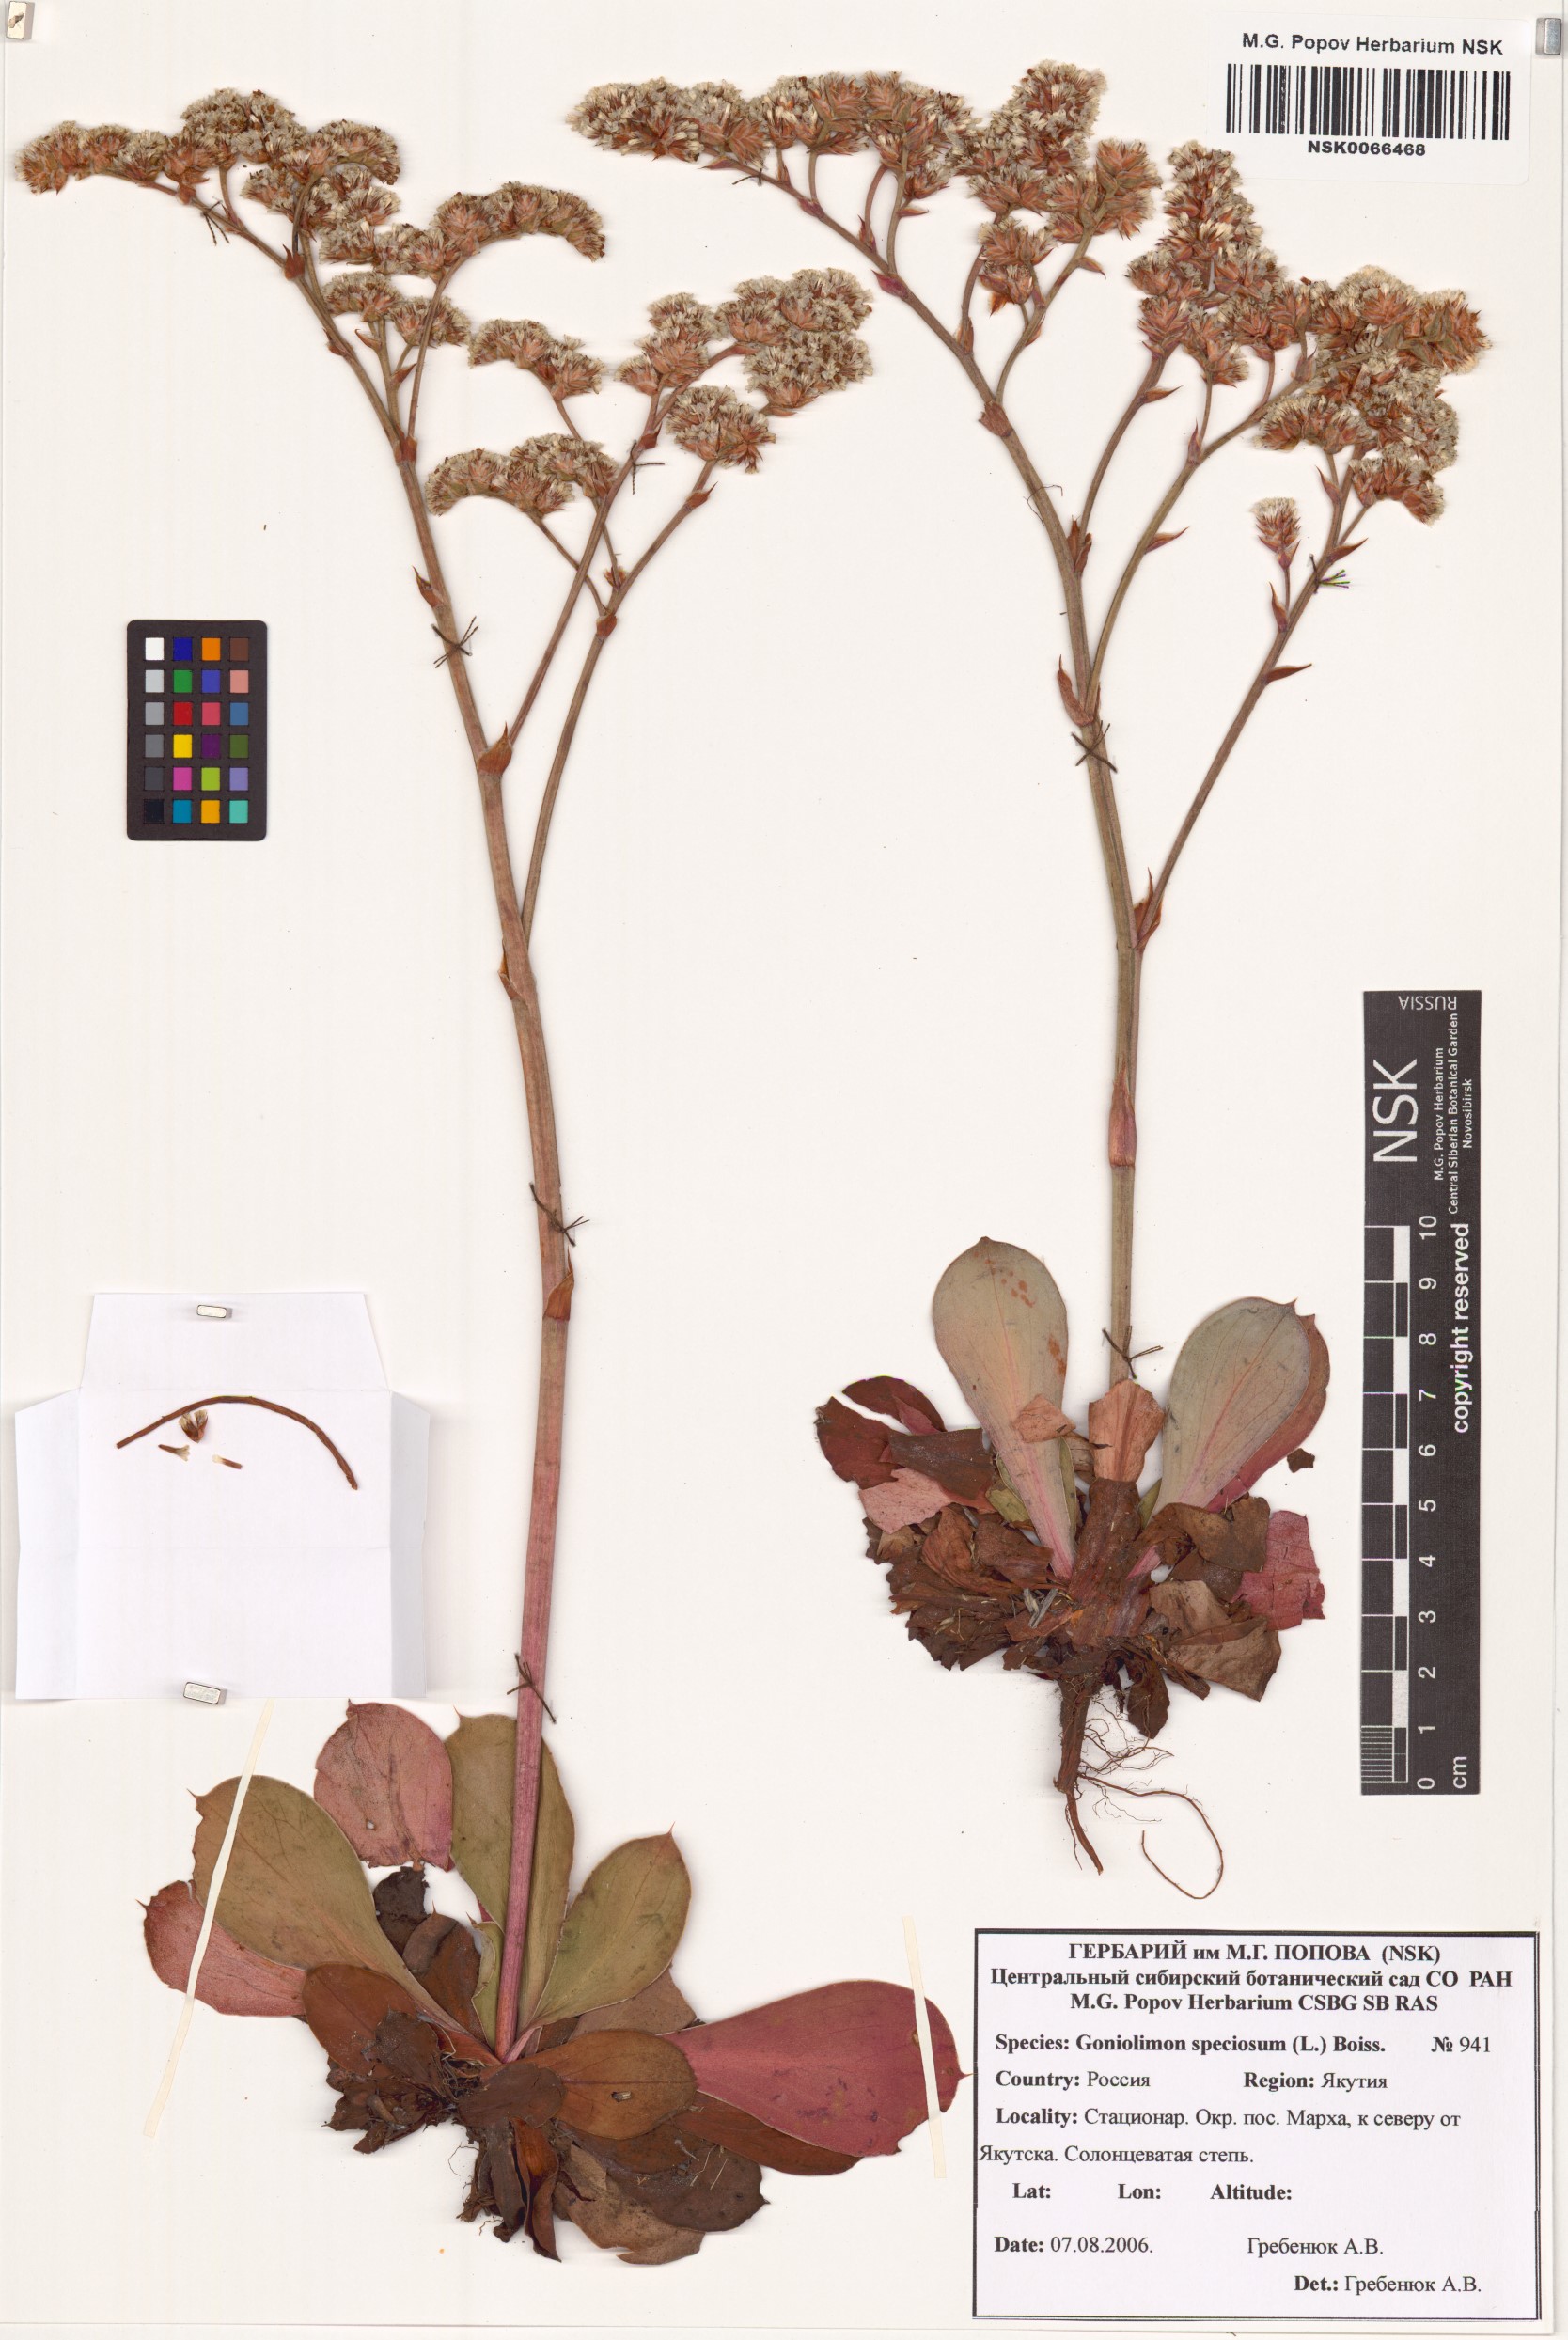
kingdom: Plantae
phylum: Tracheophyta
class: Magnoliopsida
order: Caryophyllales
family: Plumbaginaceae
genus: Goniolimon
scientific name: Goniolimon speciosum
